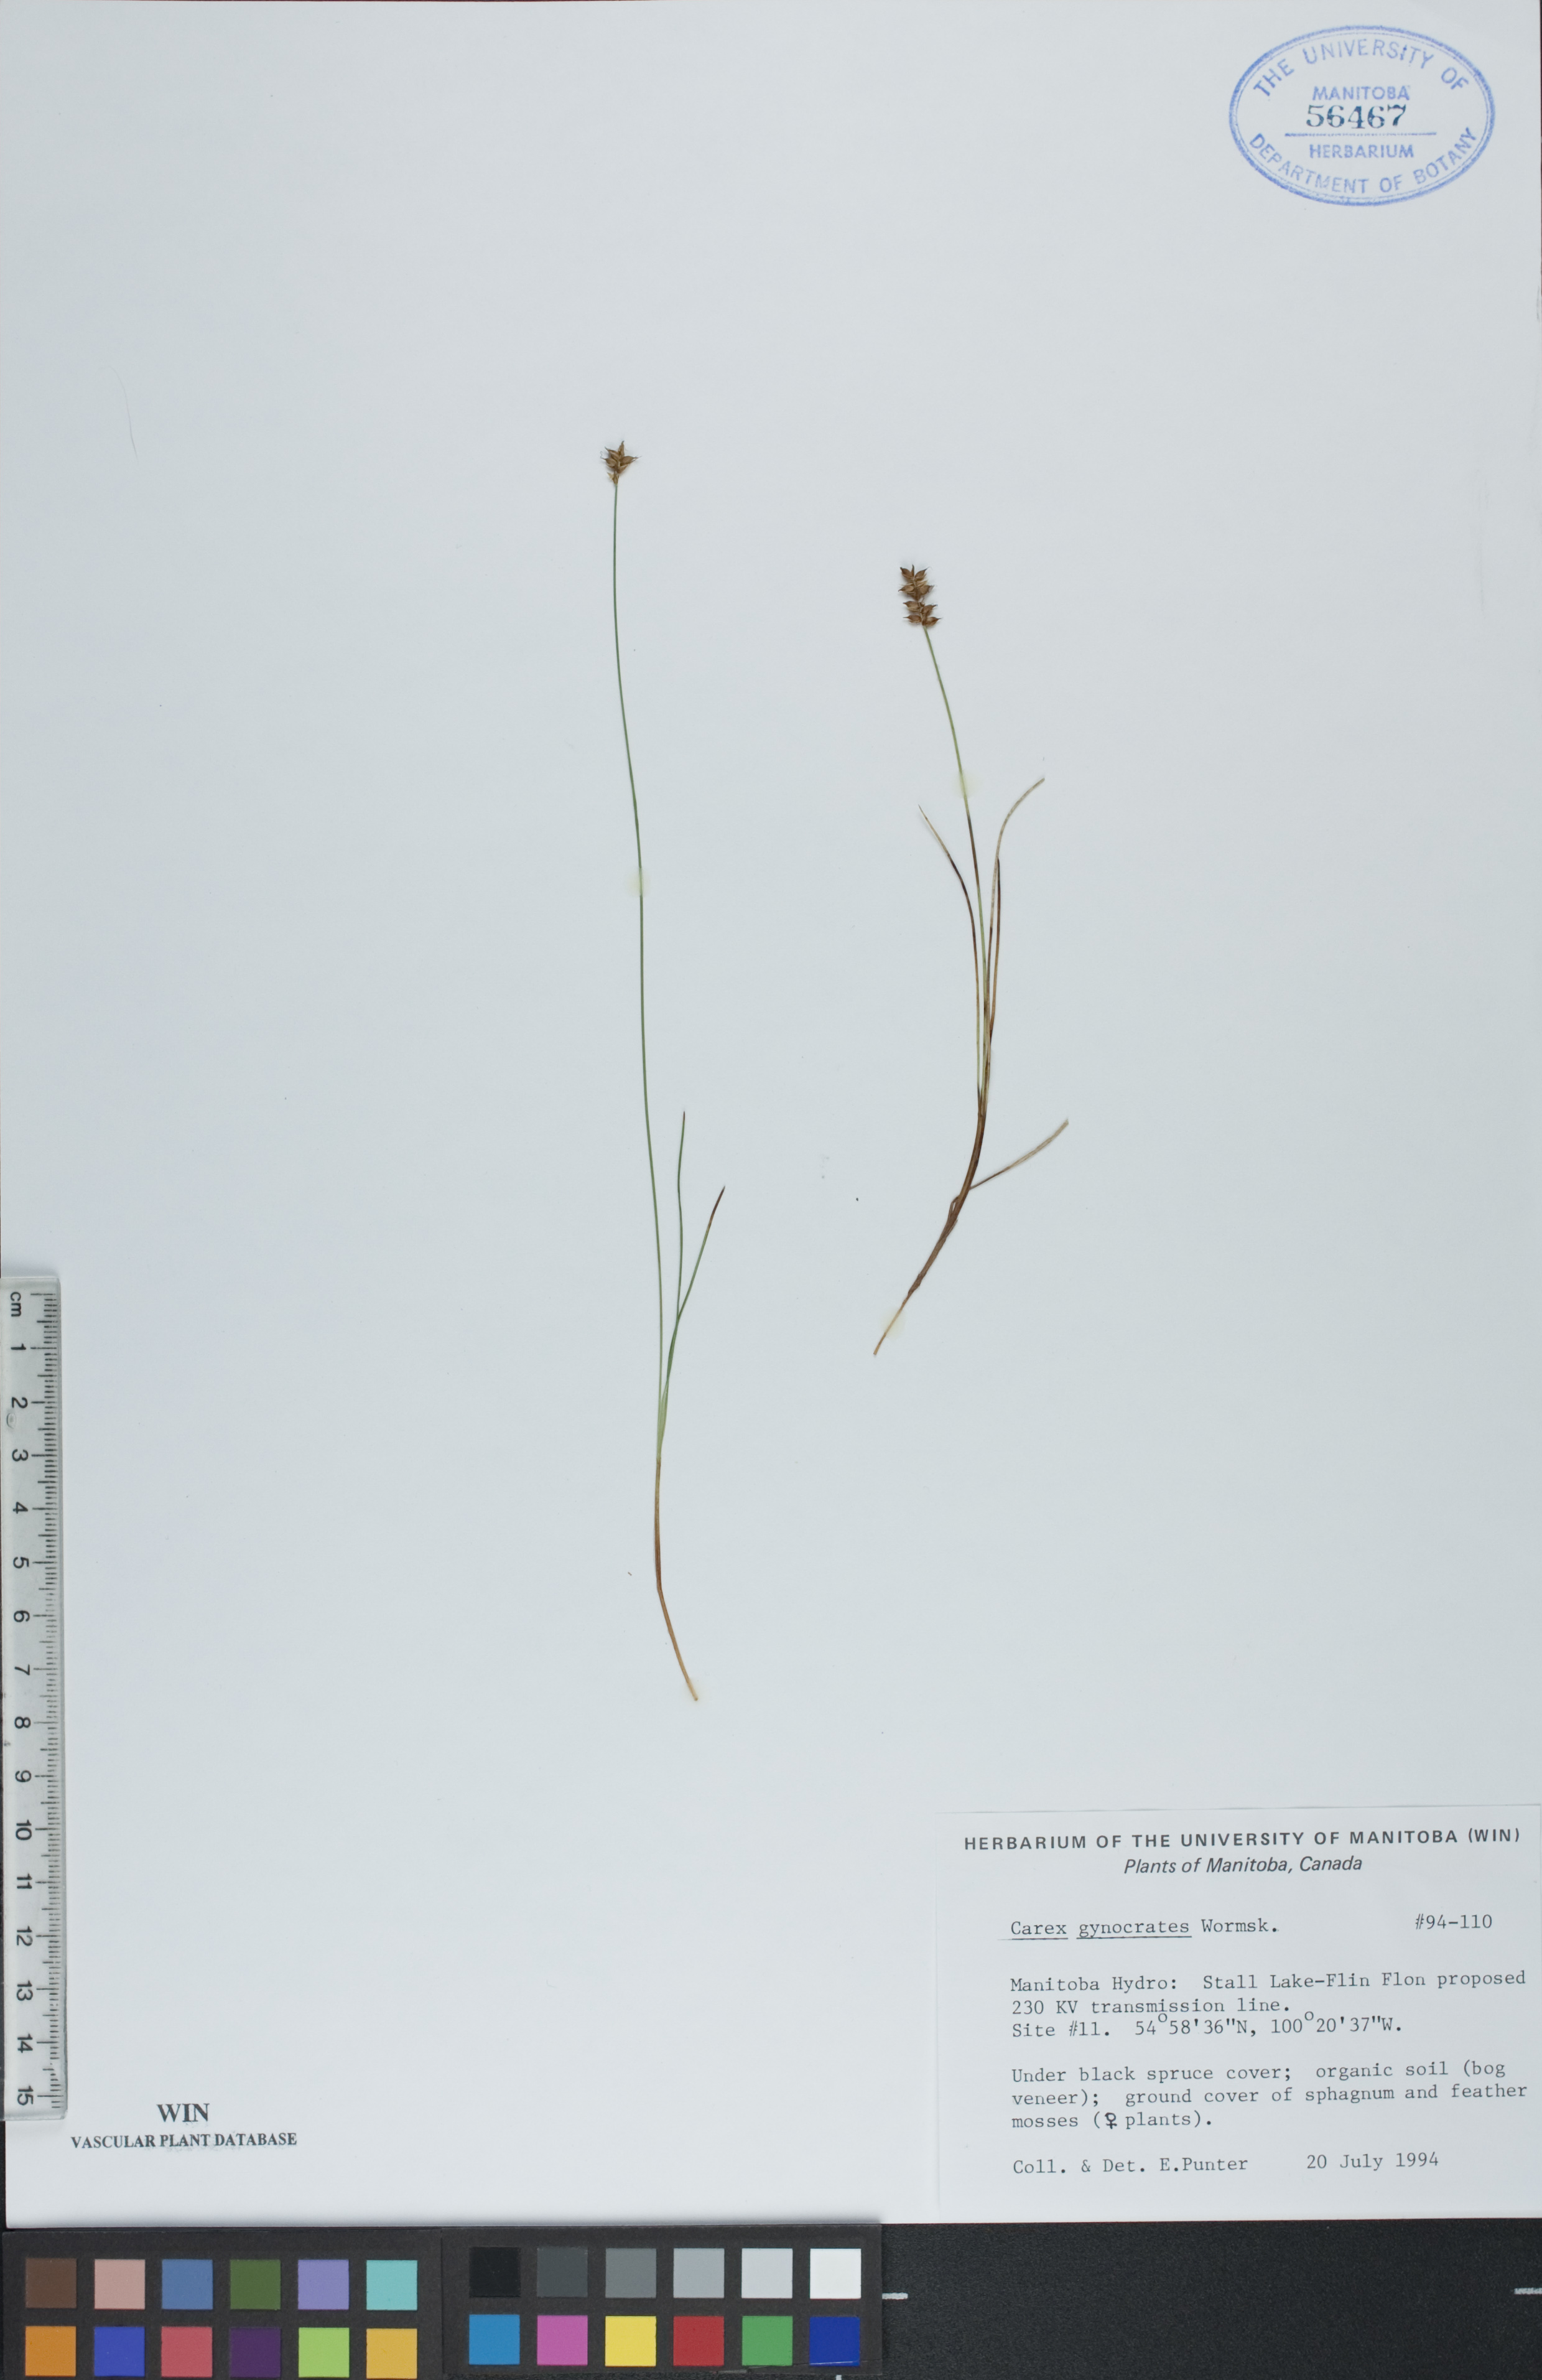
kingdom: Plantae
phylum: Tracheophyta
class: Liliopsida
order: Poales
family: Cyperaceae
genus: Carex
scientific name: Carex nardina
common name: Nard sedge
